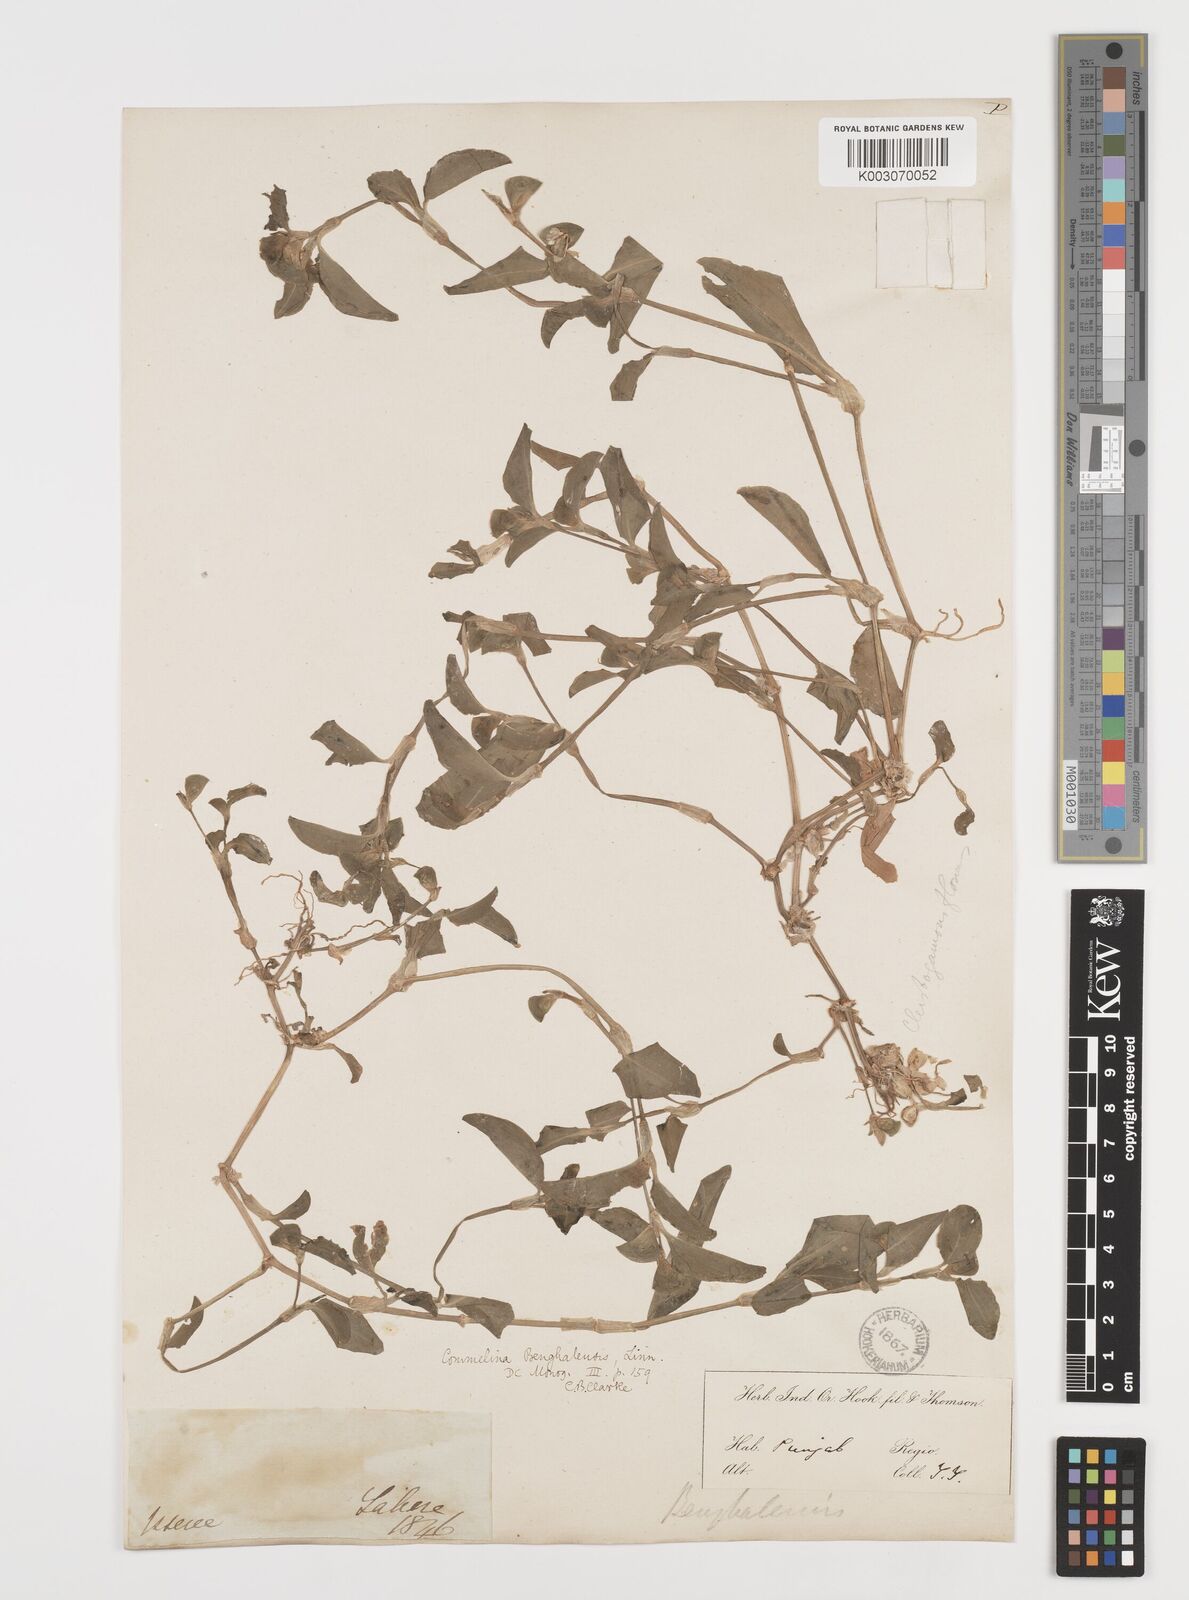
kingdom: Plantae
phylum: Tracheophyta
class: Liliopsida
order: Commelinales
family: Commelinaceae
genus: Commelina
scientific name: Commelina benghalensis
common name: Jio
